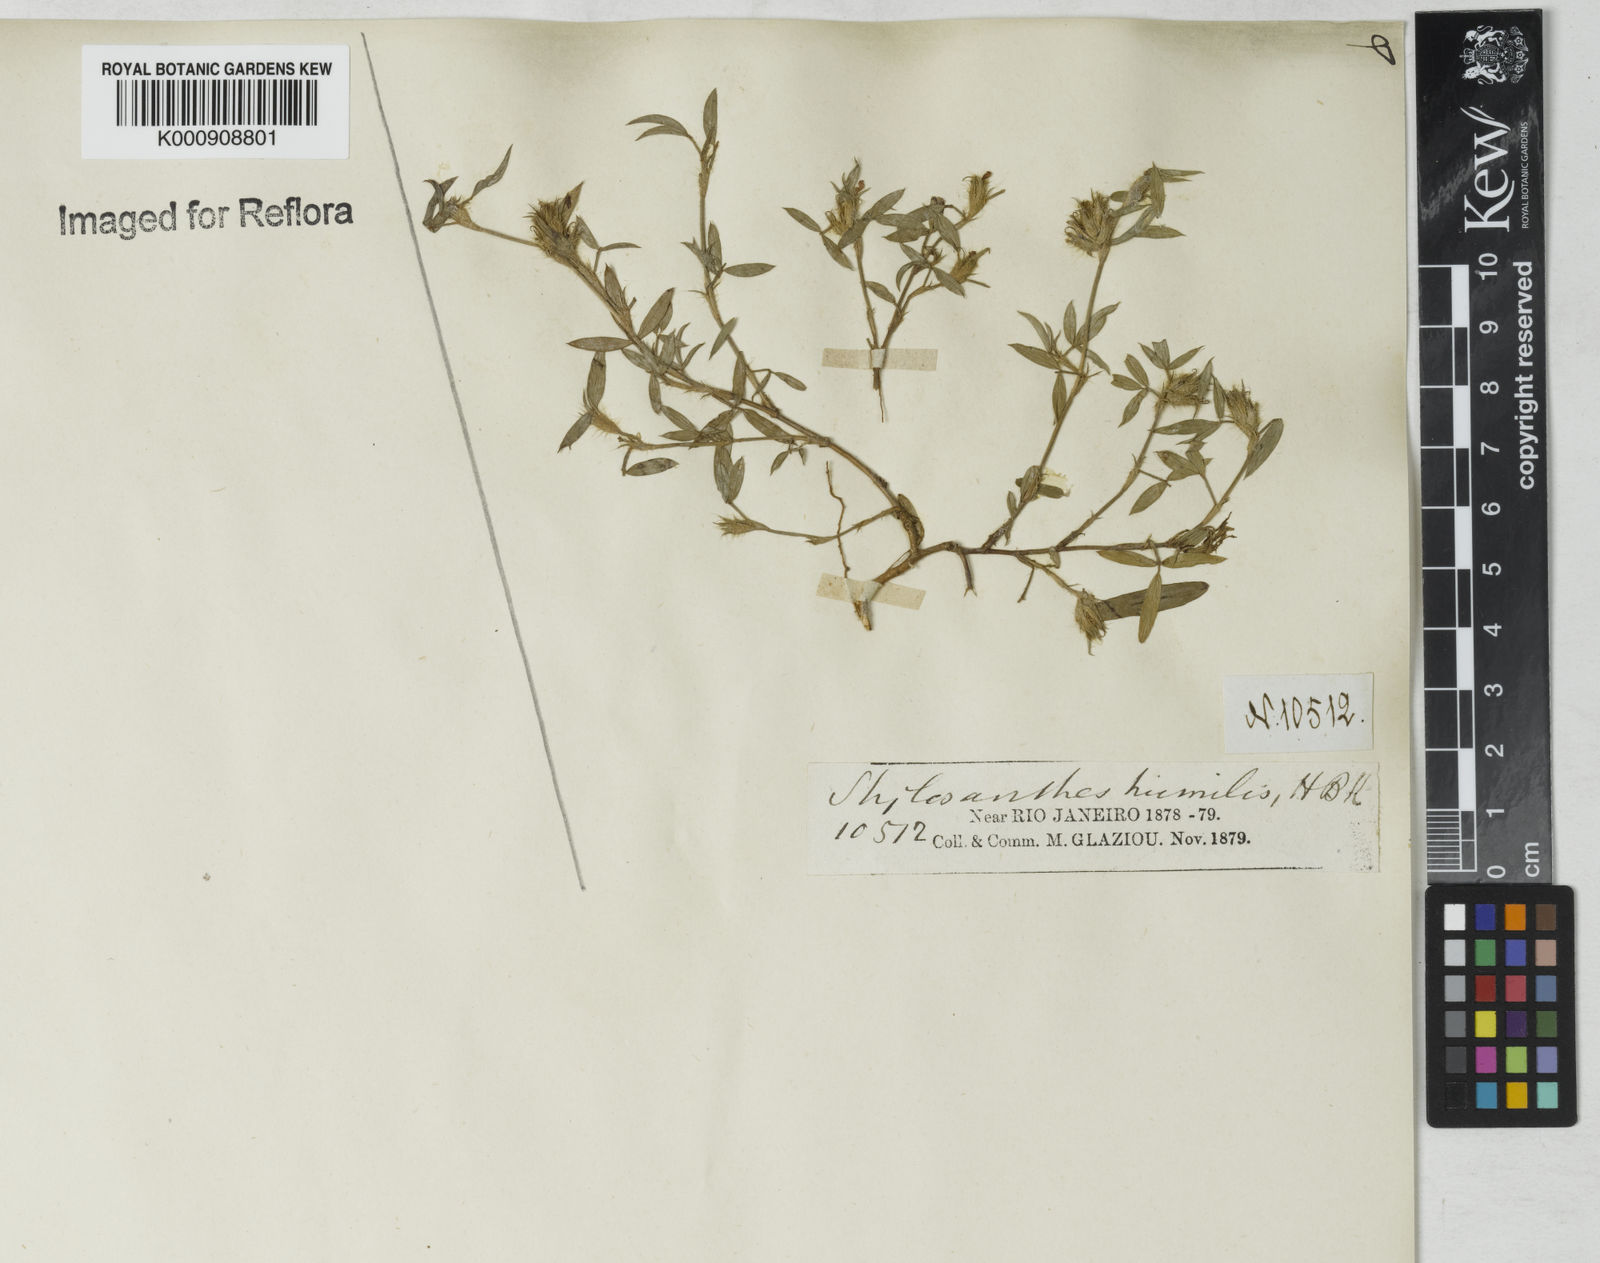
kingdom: Plantae
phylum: Tracheophyta
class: Magnoliopsida
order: Fabales
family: Fabaceae
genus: Stylosanthes
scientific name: Stylosanthes humilis
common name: Townsville stylo
